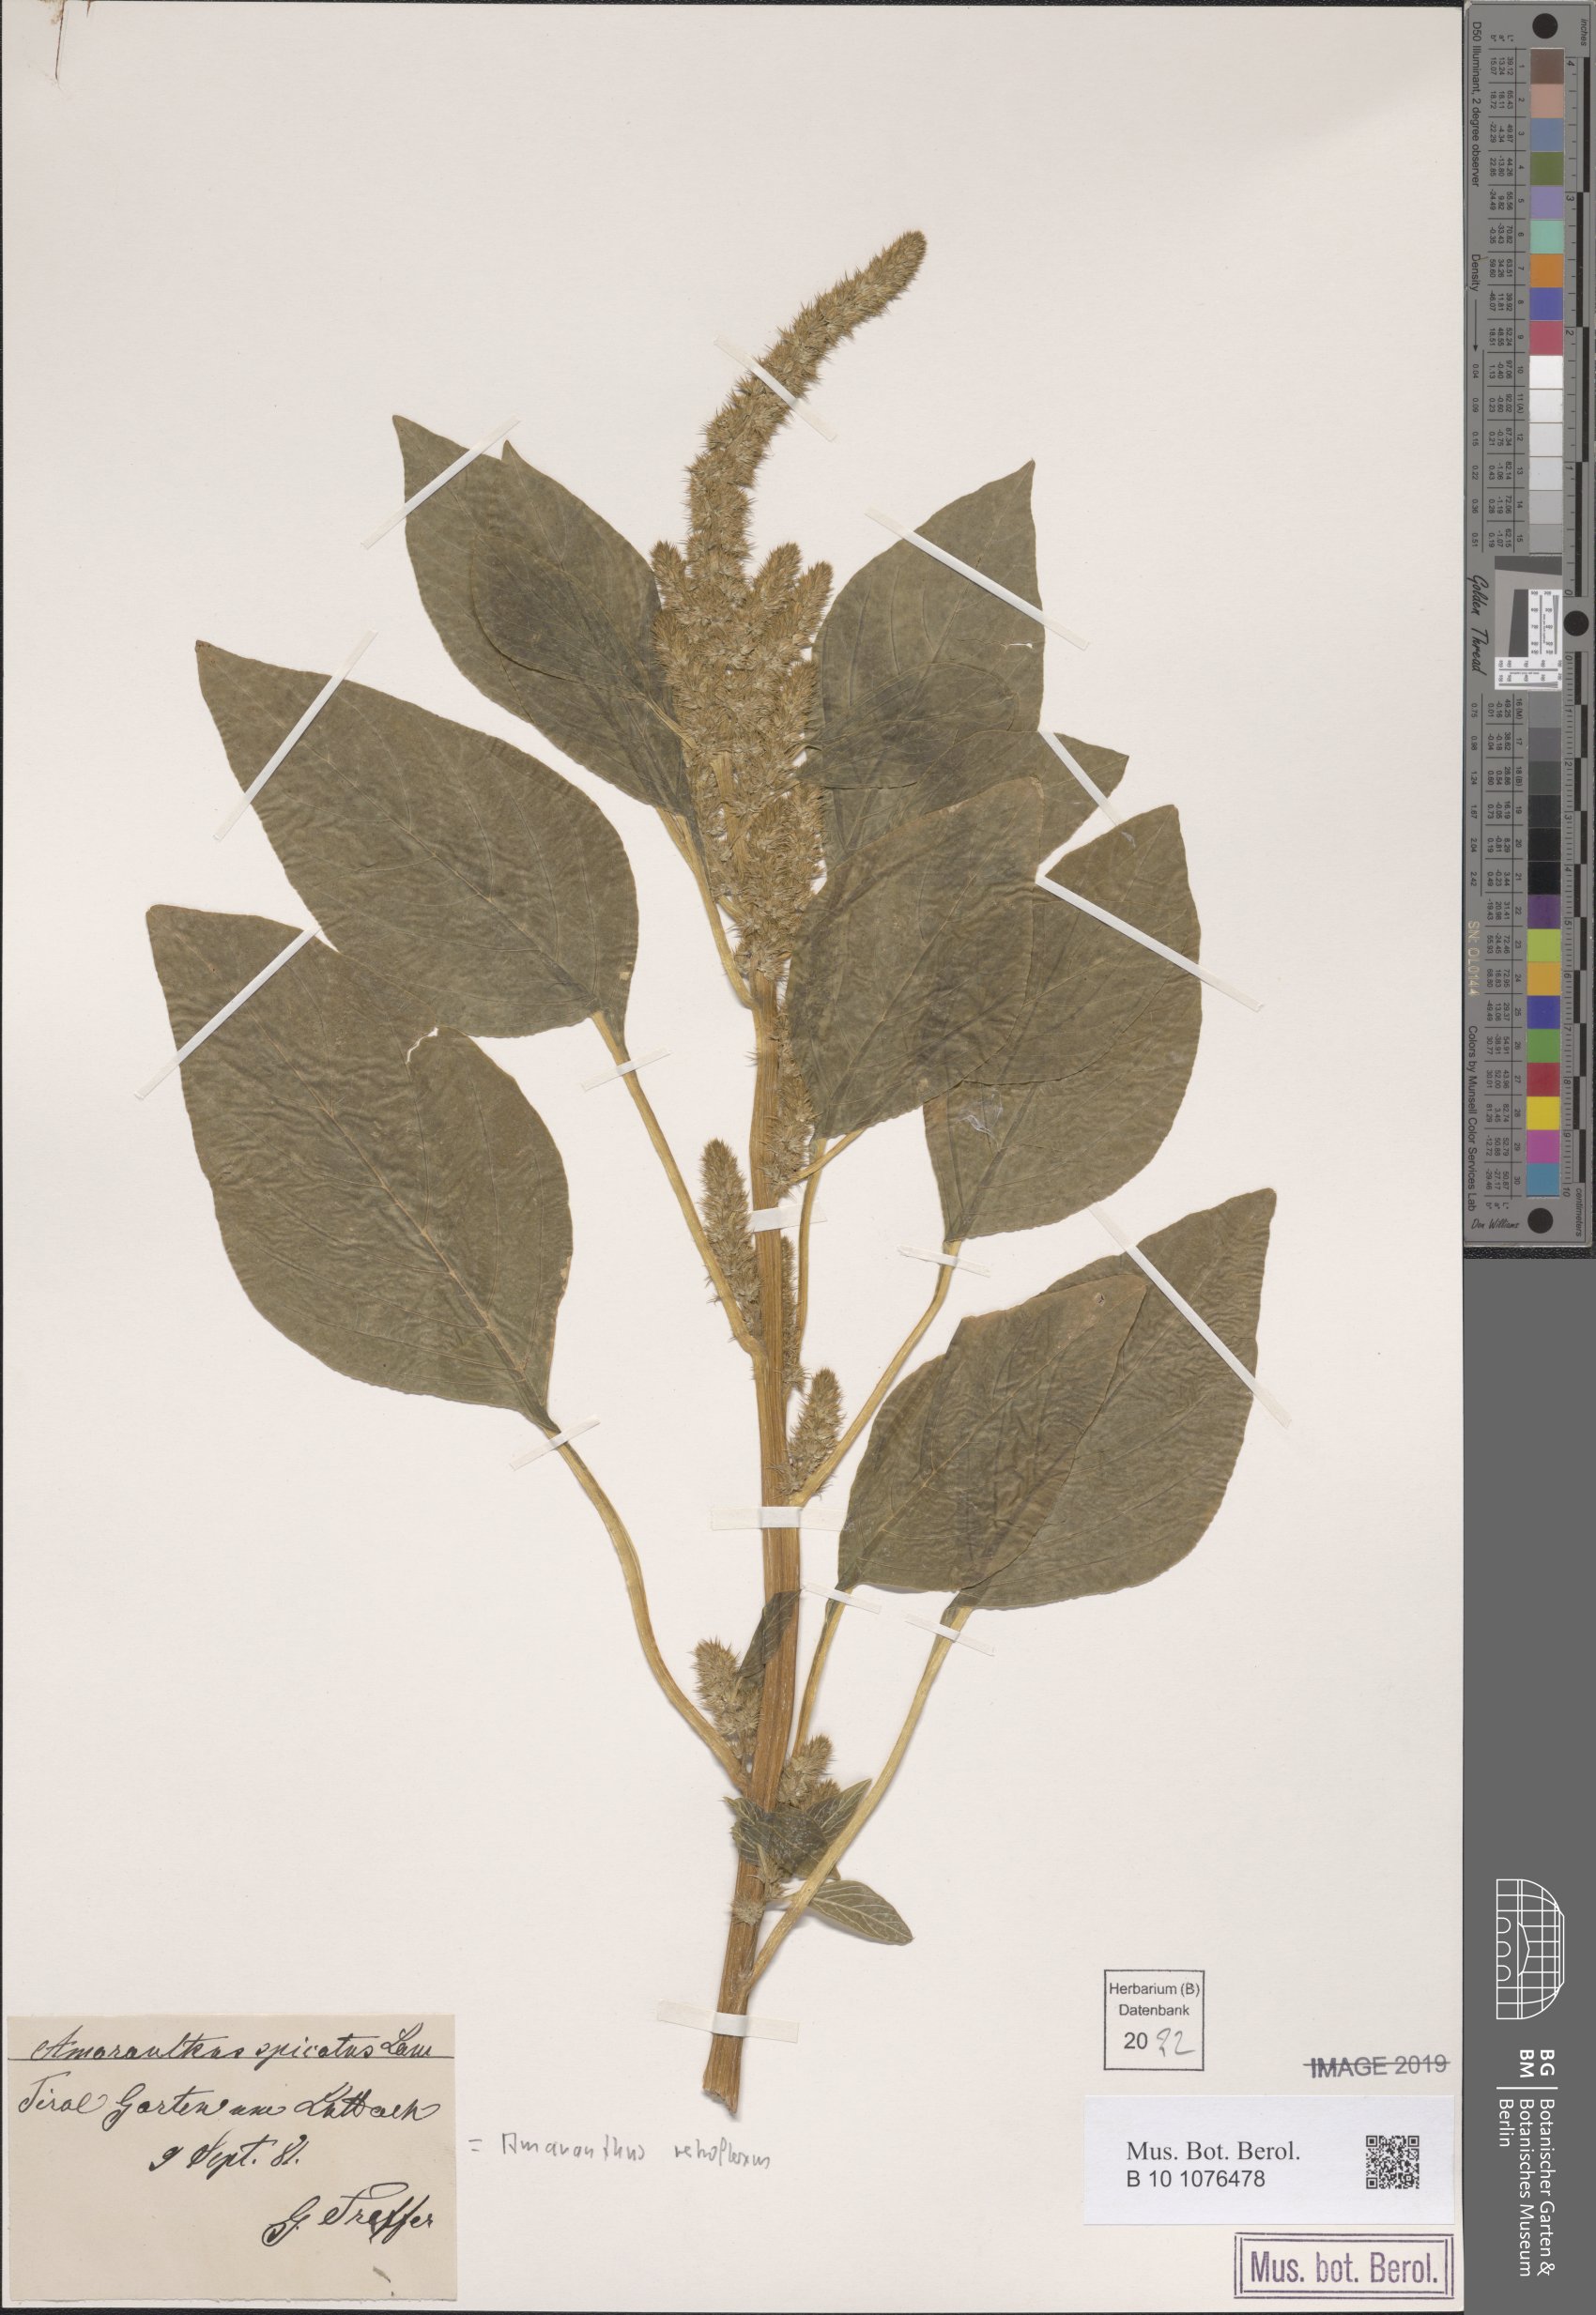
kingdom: Plantae
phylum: Tracheophyta
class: Magnoliopsida
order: Caryophyllales
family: Amaranthaceae
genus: Amaranthus
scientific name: Amaranthus retroflexus
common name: Redroot amaranth
